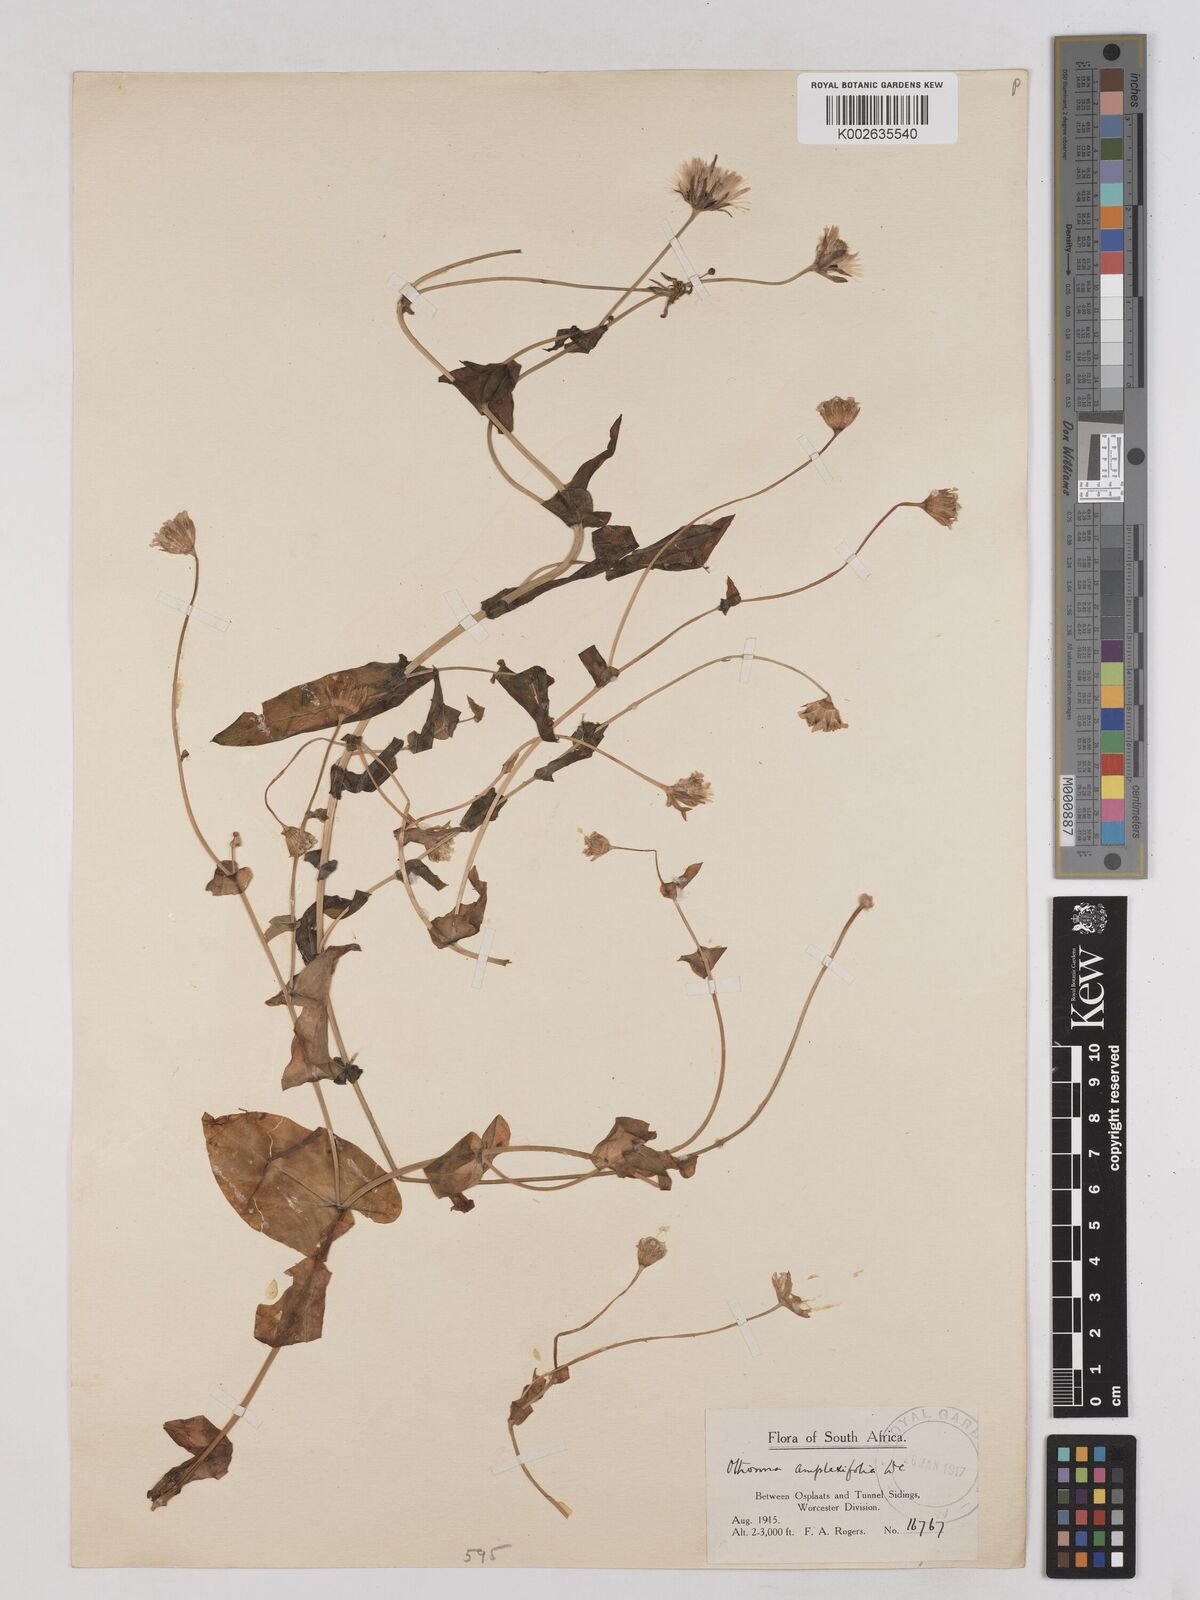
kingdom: Plantae
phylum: Tracheophyta
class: Magnoliopsida
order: Asterales
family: Asteraceae
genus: Othonna
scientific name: Othonna amplexifolia
